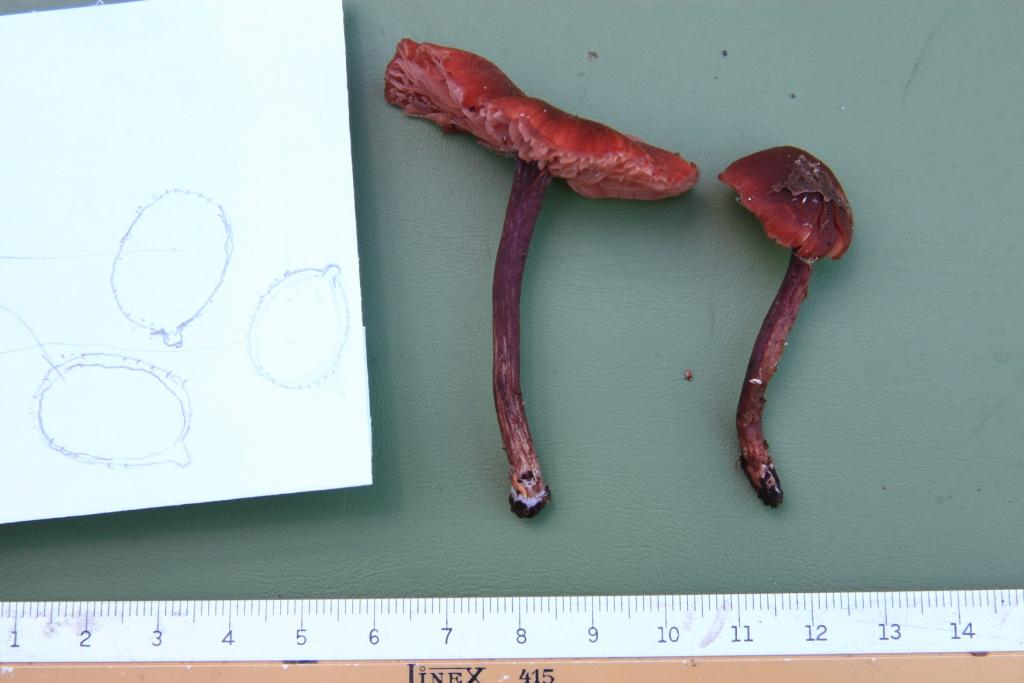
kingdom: Fungi
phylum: Basidiomycota
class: Agaricomycetes
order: Agaricales
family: Hydnangiaceae
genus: Laccaria
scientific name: Laccaria purpureobadia
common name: purpurbrun ametysthat
